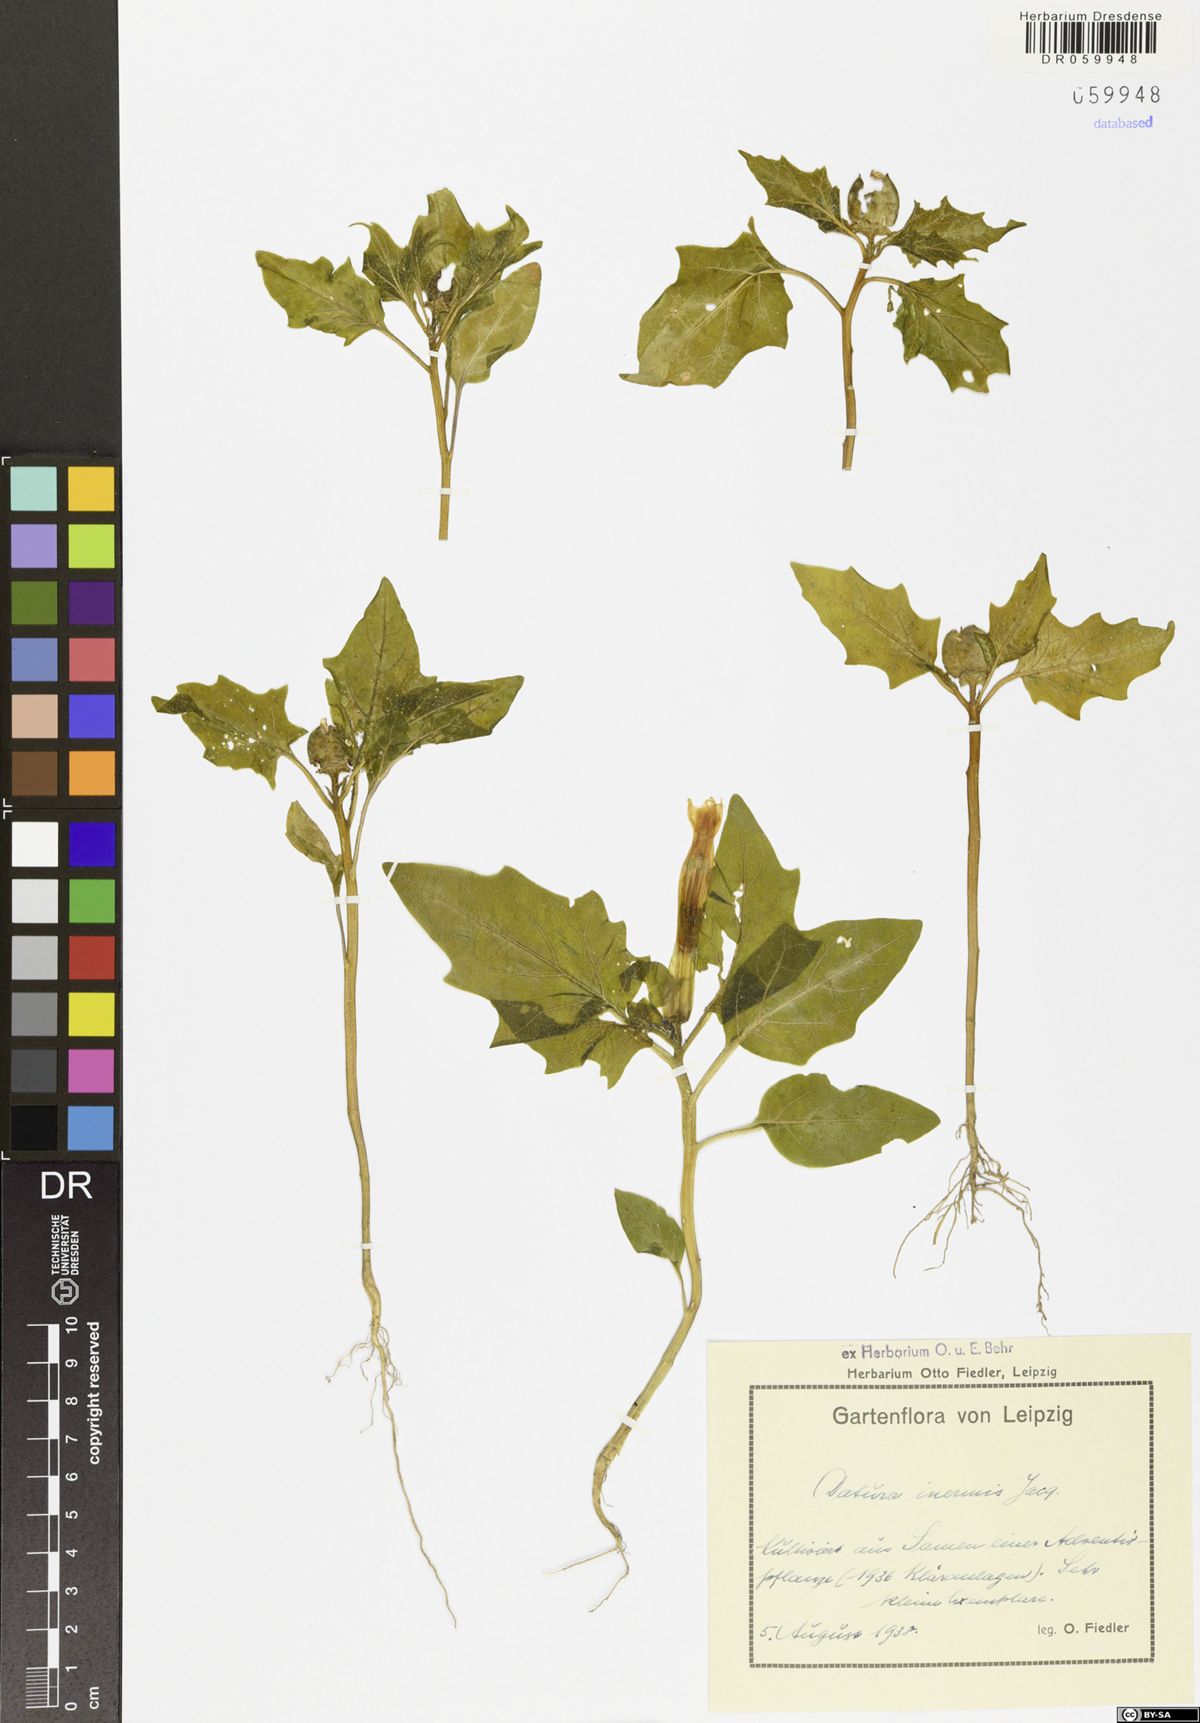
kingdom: Plantae
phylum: Tracheophyta
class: Magnoliopsida
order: Solanales
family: Solanaceae
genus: Datura
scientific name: Datura stramonium
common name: Thorn-apple
